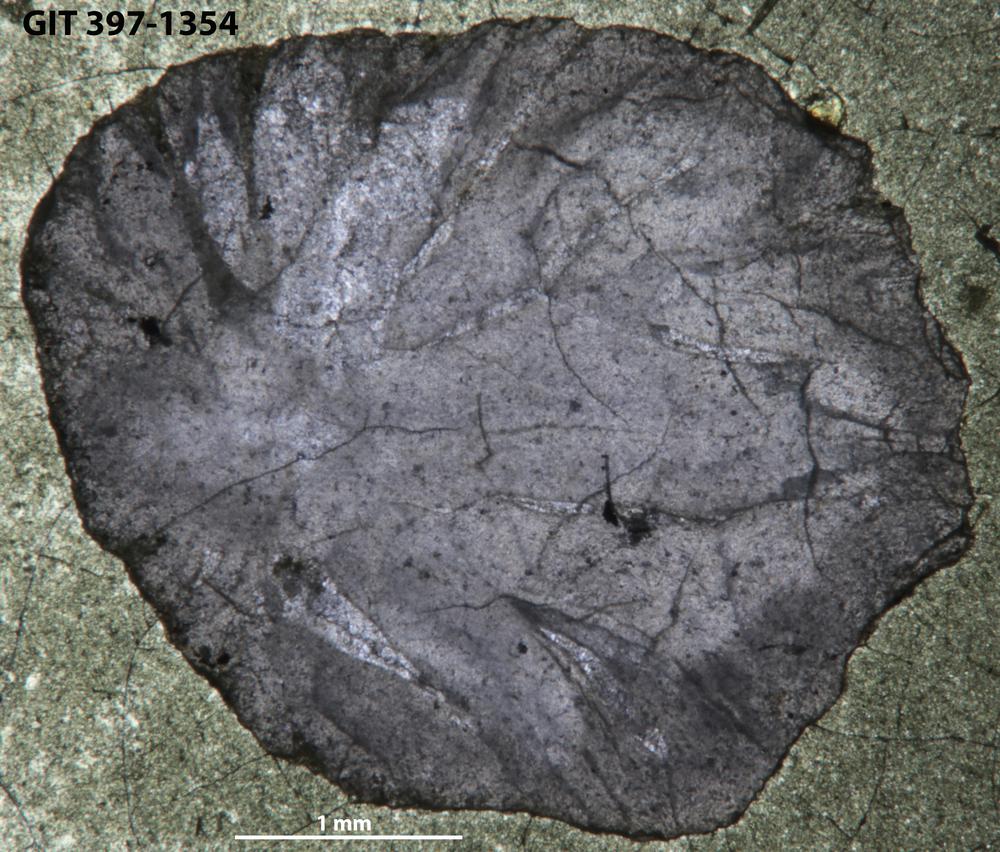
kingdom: Animalia
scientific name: Animalia
